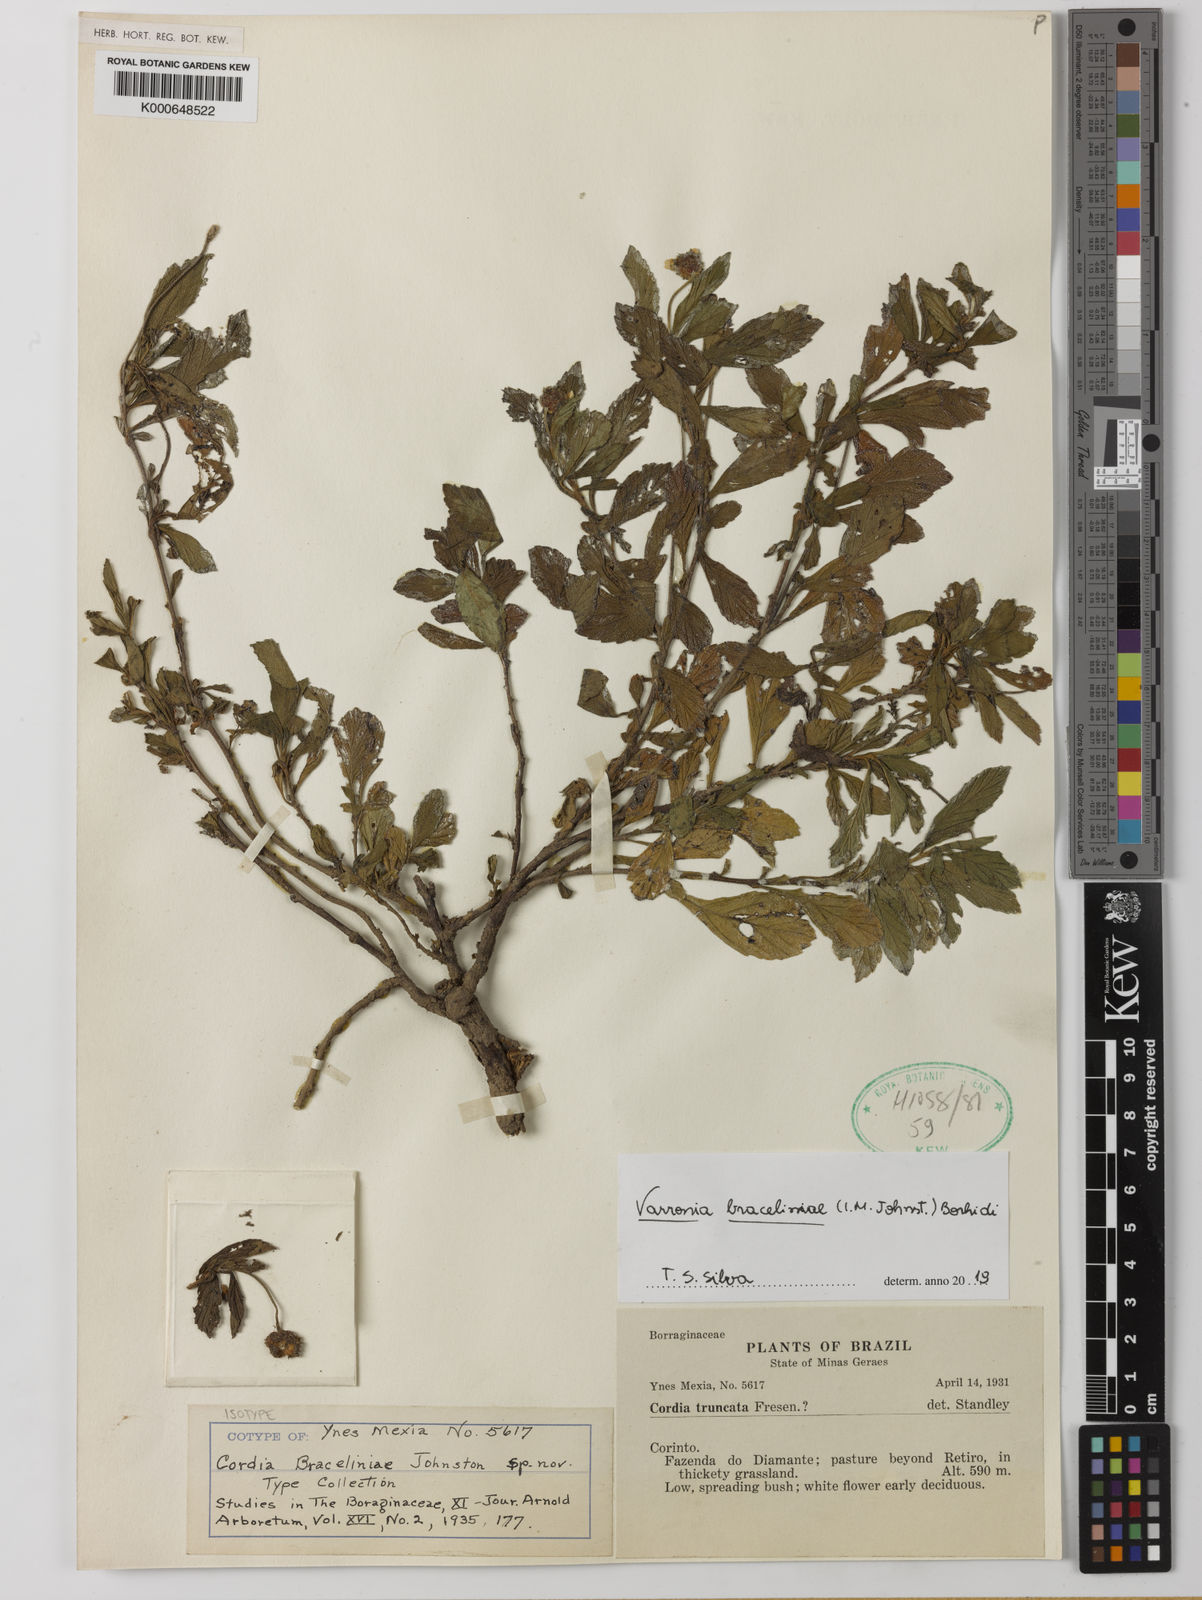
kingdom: Plantae
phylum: Tracheophyta
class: Magnoliopsida
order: Boraginales
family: Cordiaceae
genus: Varronia
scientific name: Varronia braceliniae
